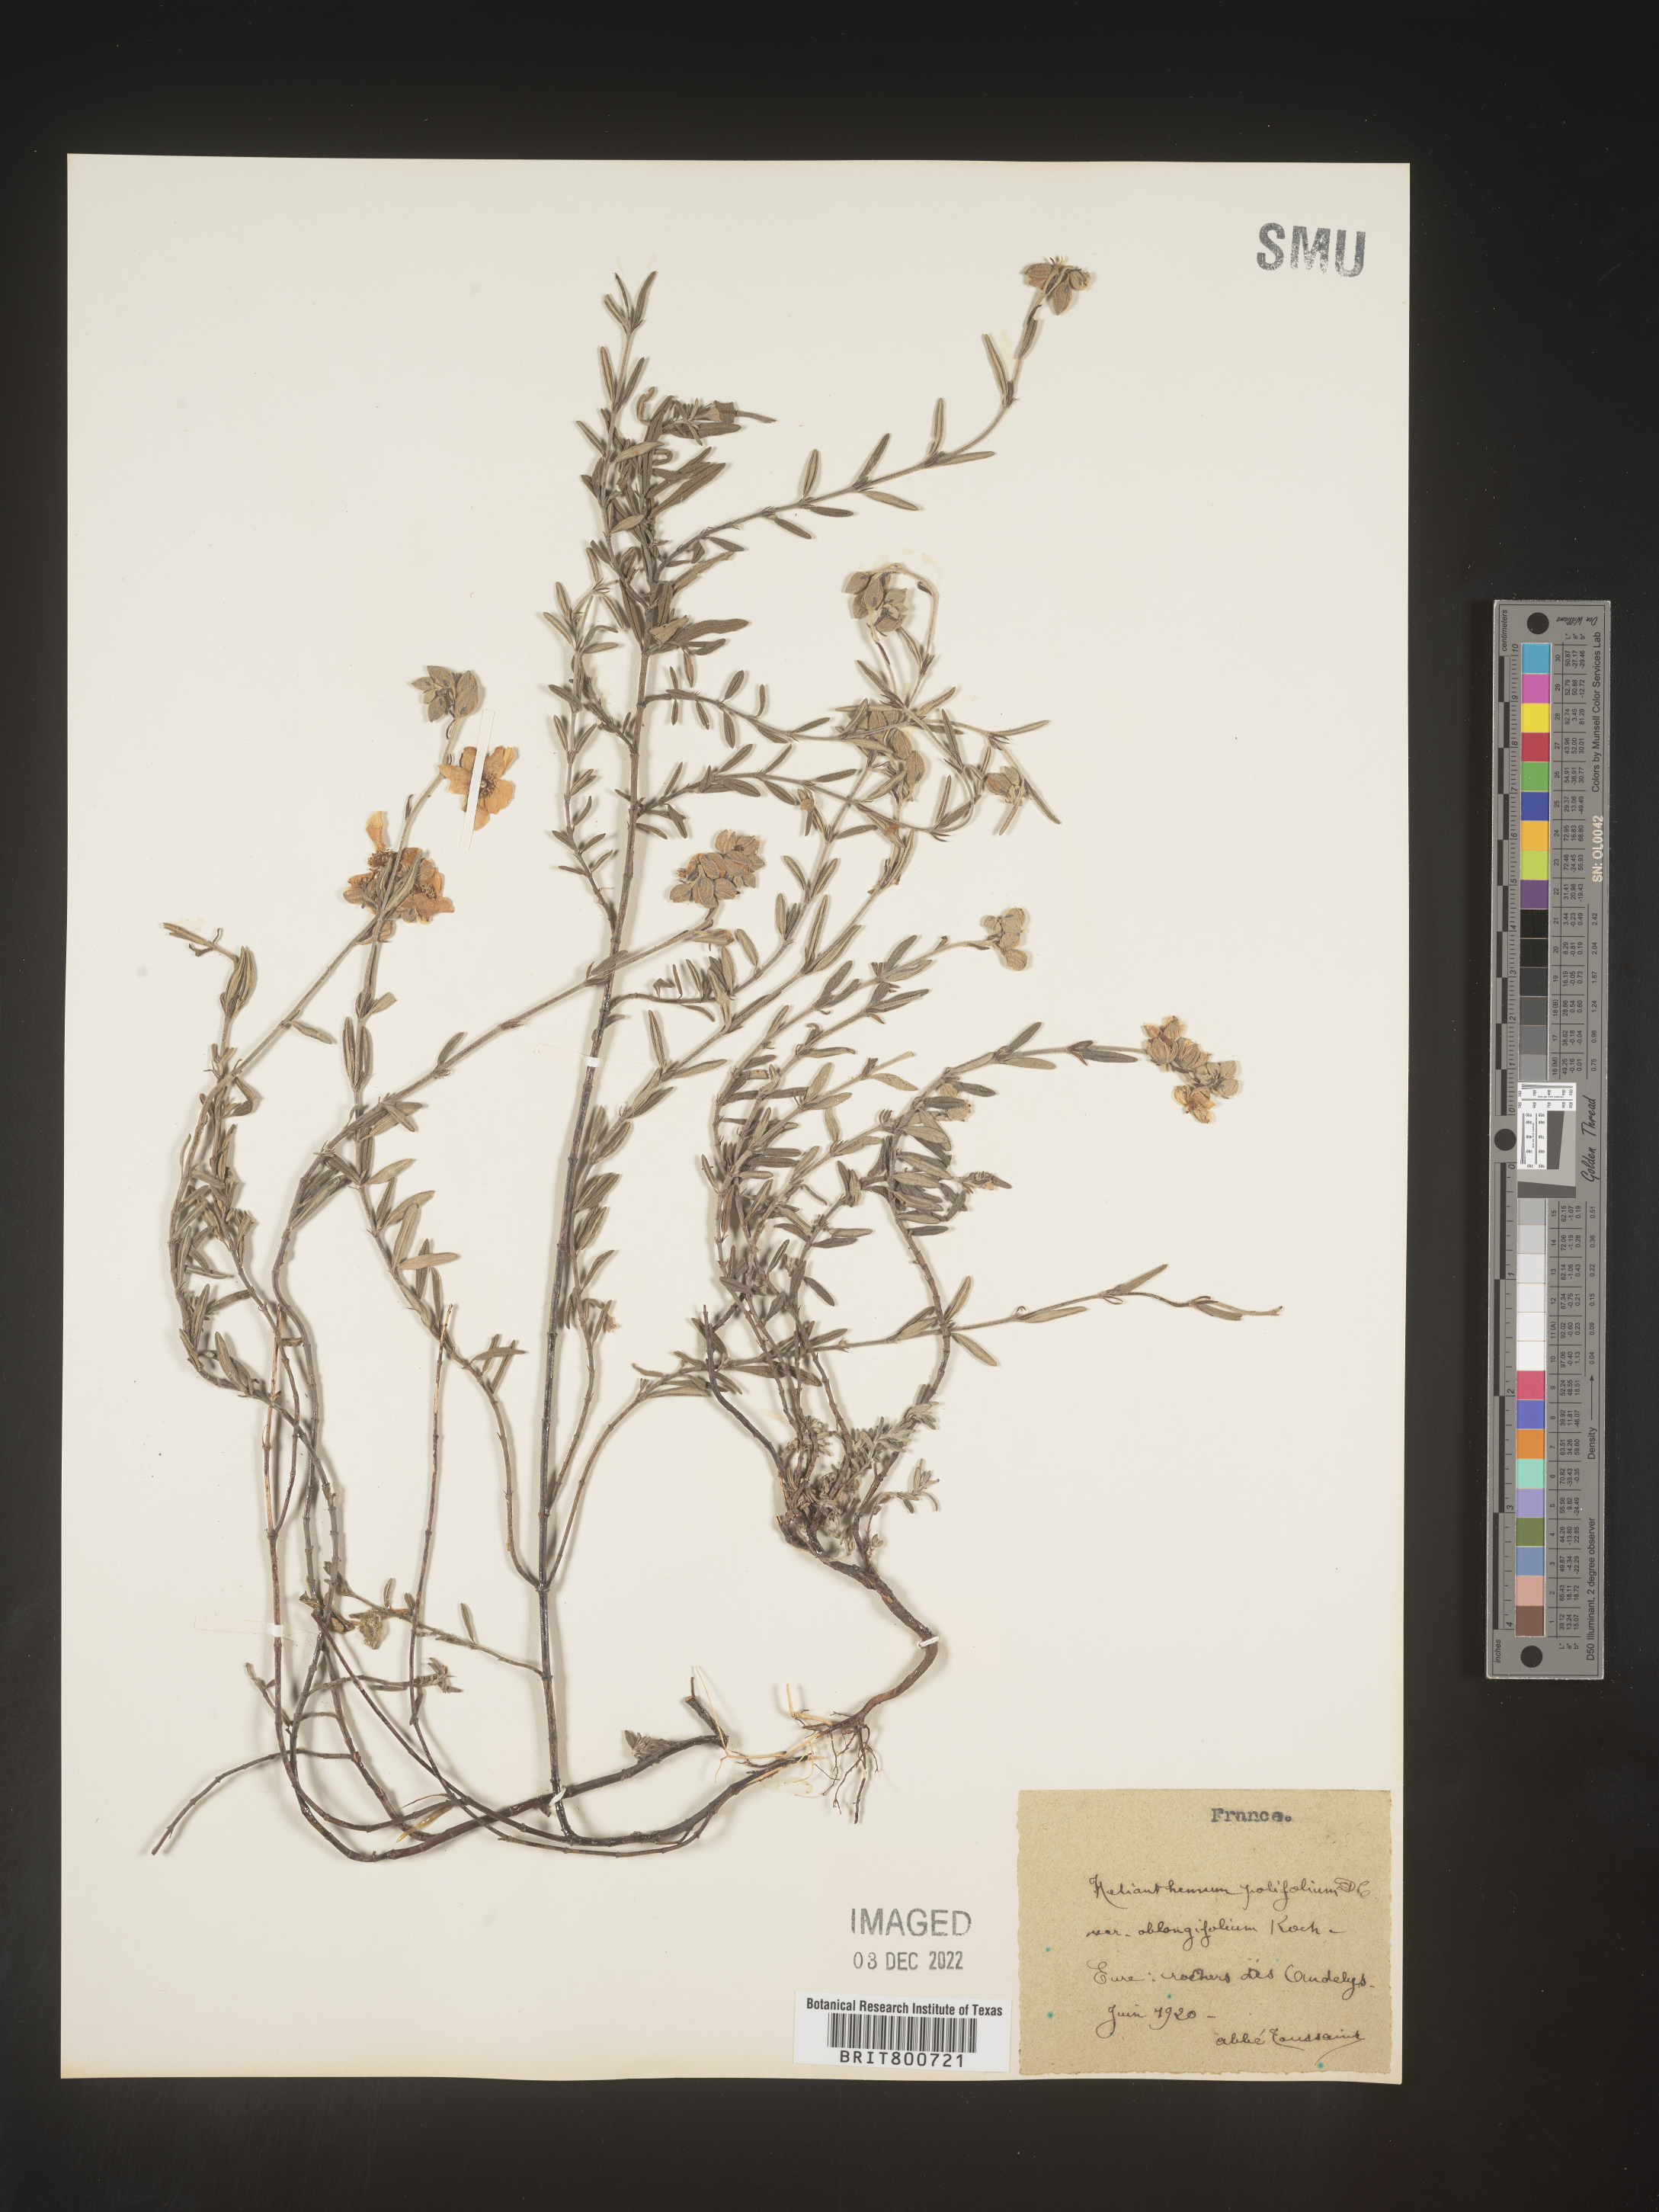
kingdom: Plantae
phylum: Tracheophyta
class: Magnoliopsida
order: Malvales
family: Cistaceae
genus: Helianthemum
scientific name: Helianthemum
